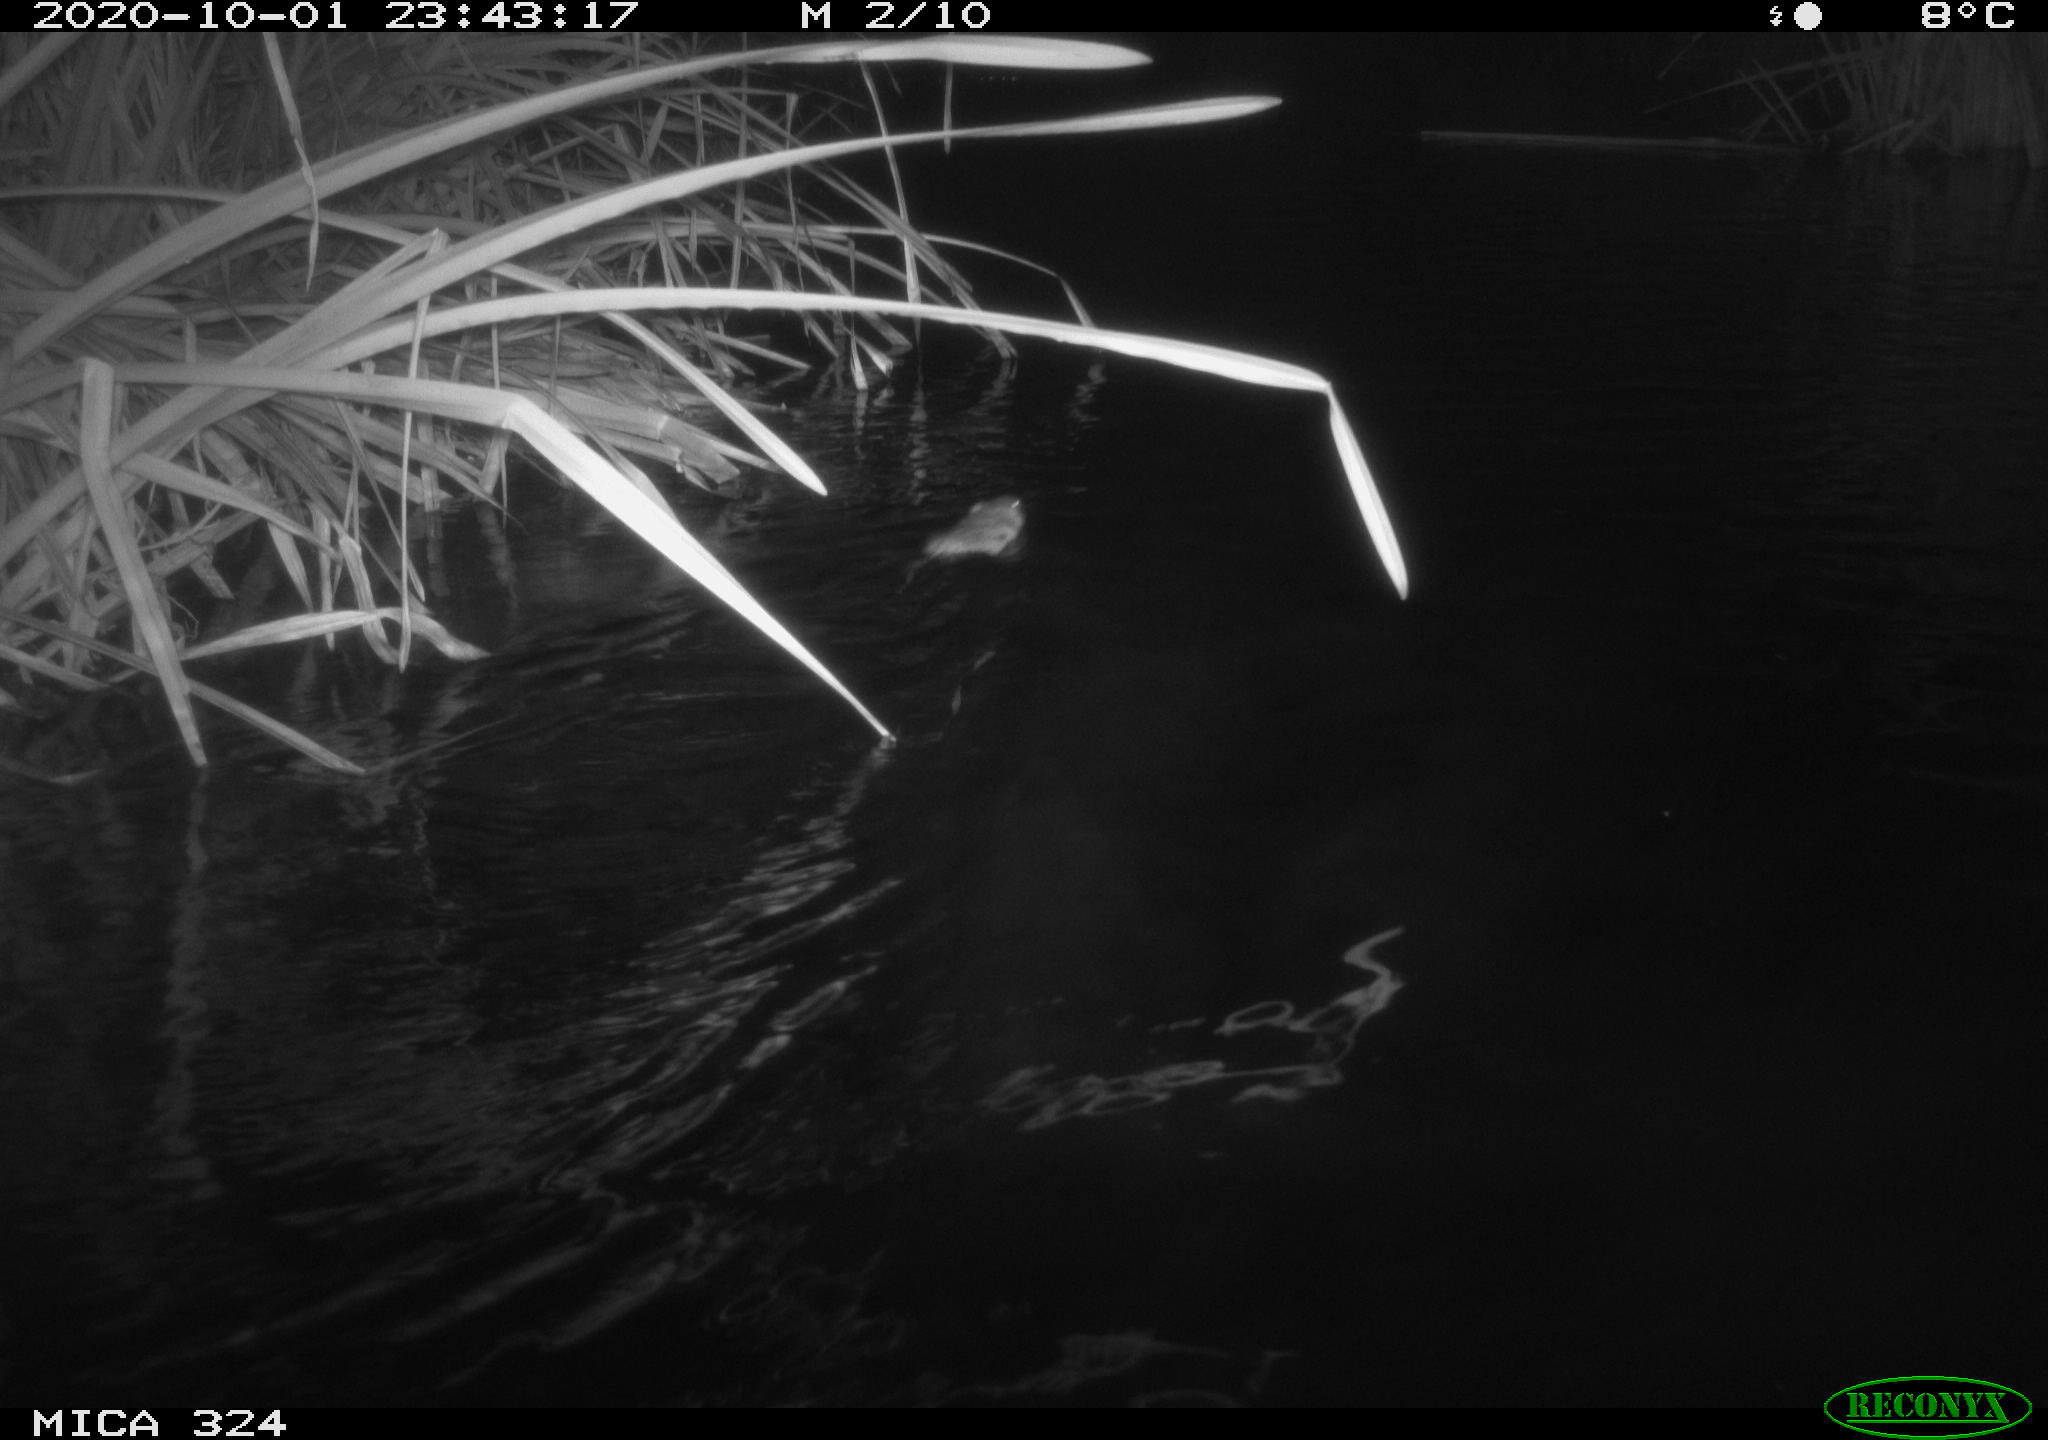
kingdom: Animalia
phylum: Chordata
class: Mammalia
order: Rodentia
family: Cricetidae
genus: Ondatra
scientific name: Ondatra zibethicus
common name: Muskrat
